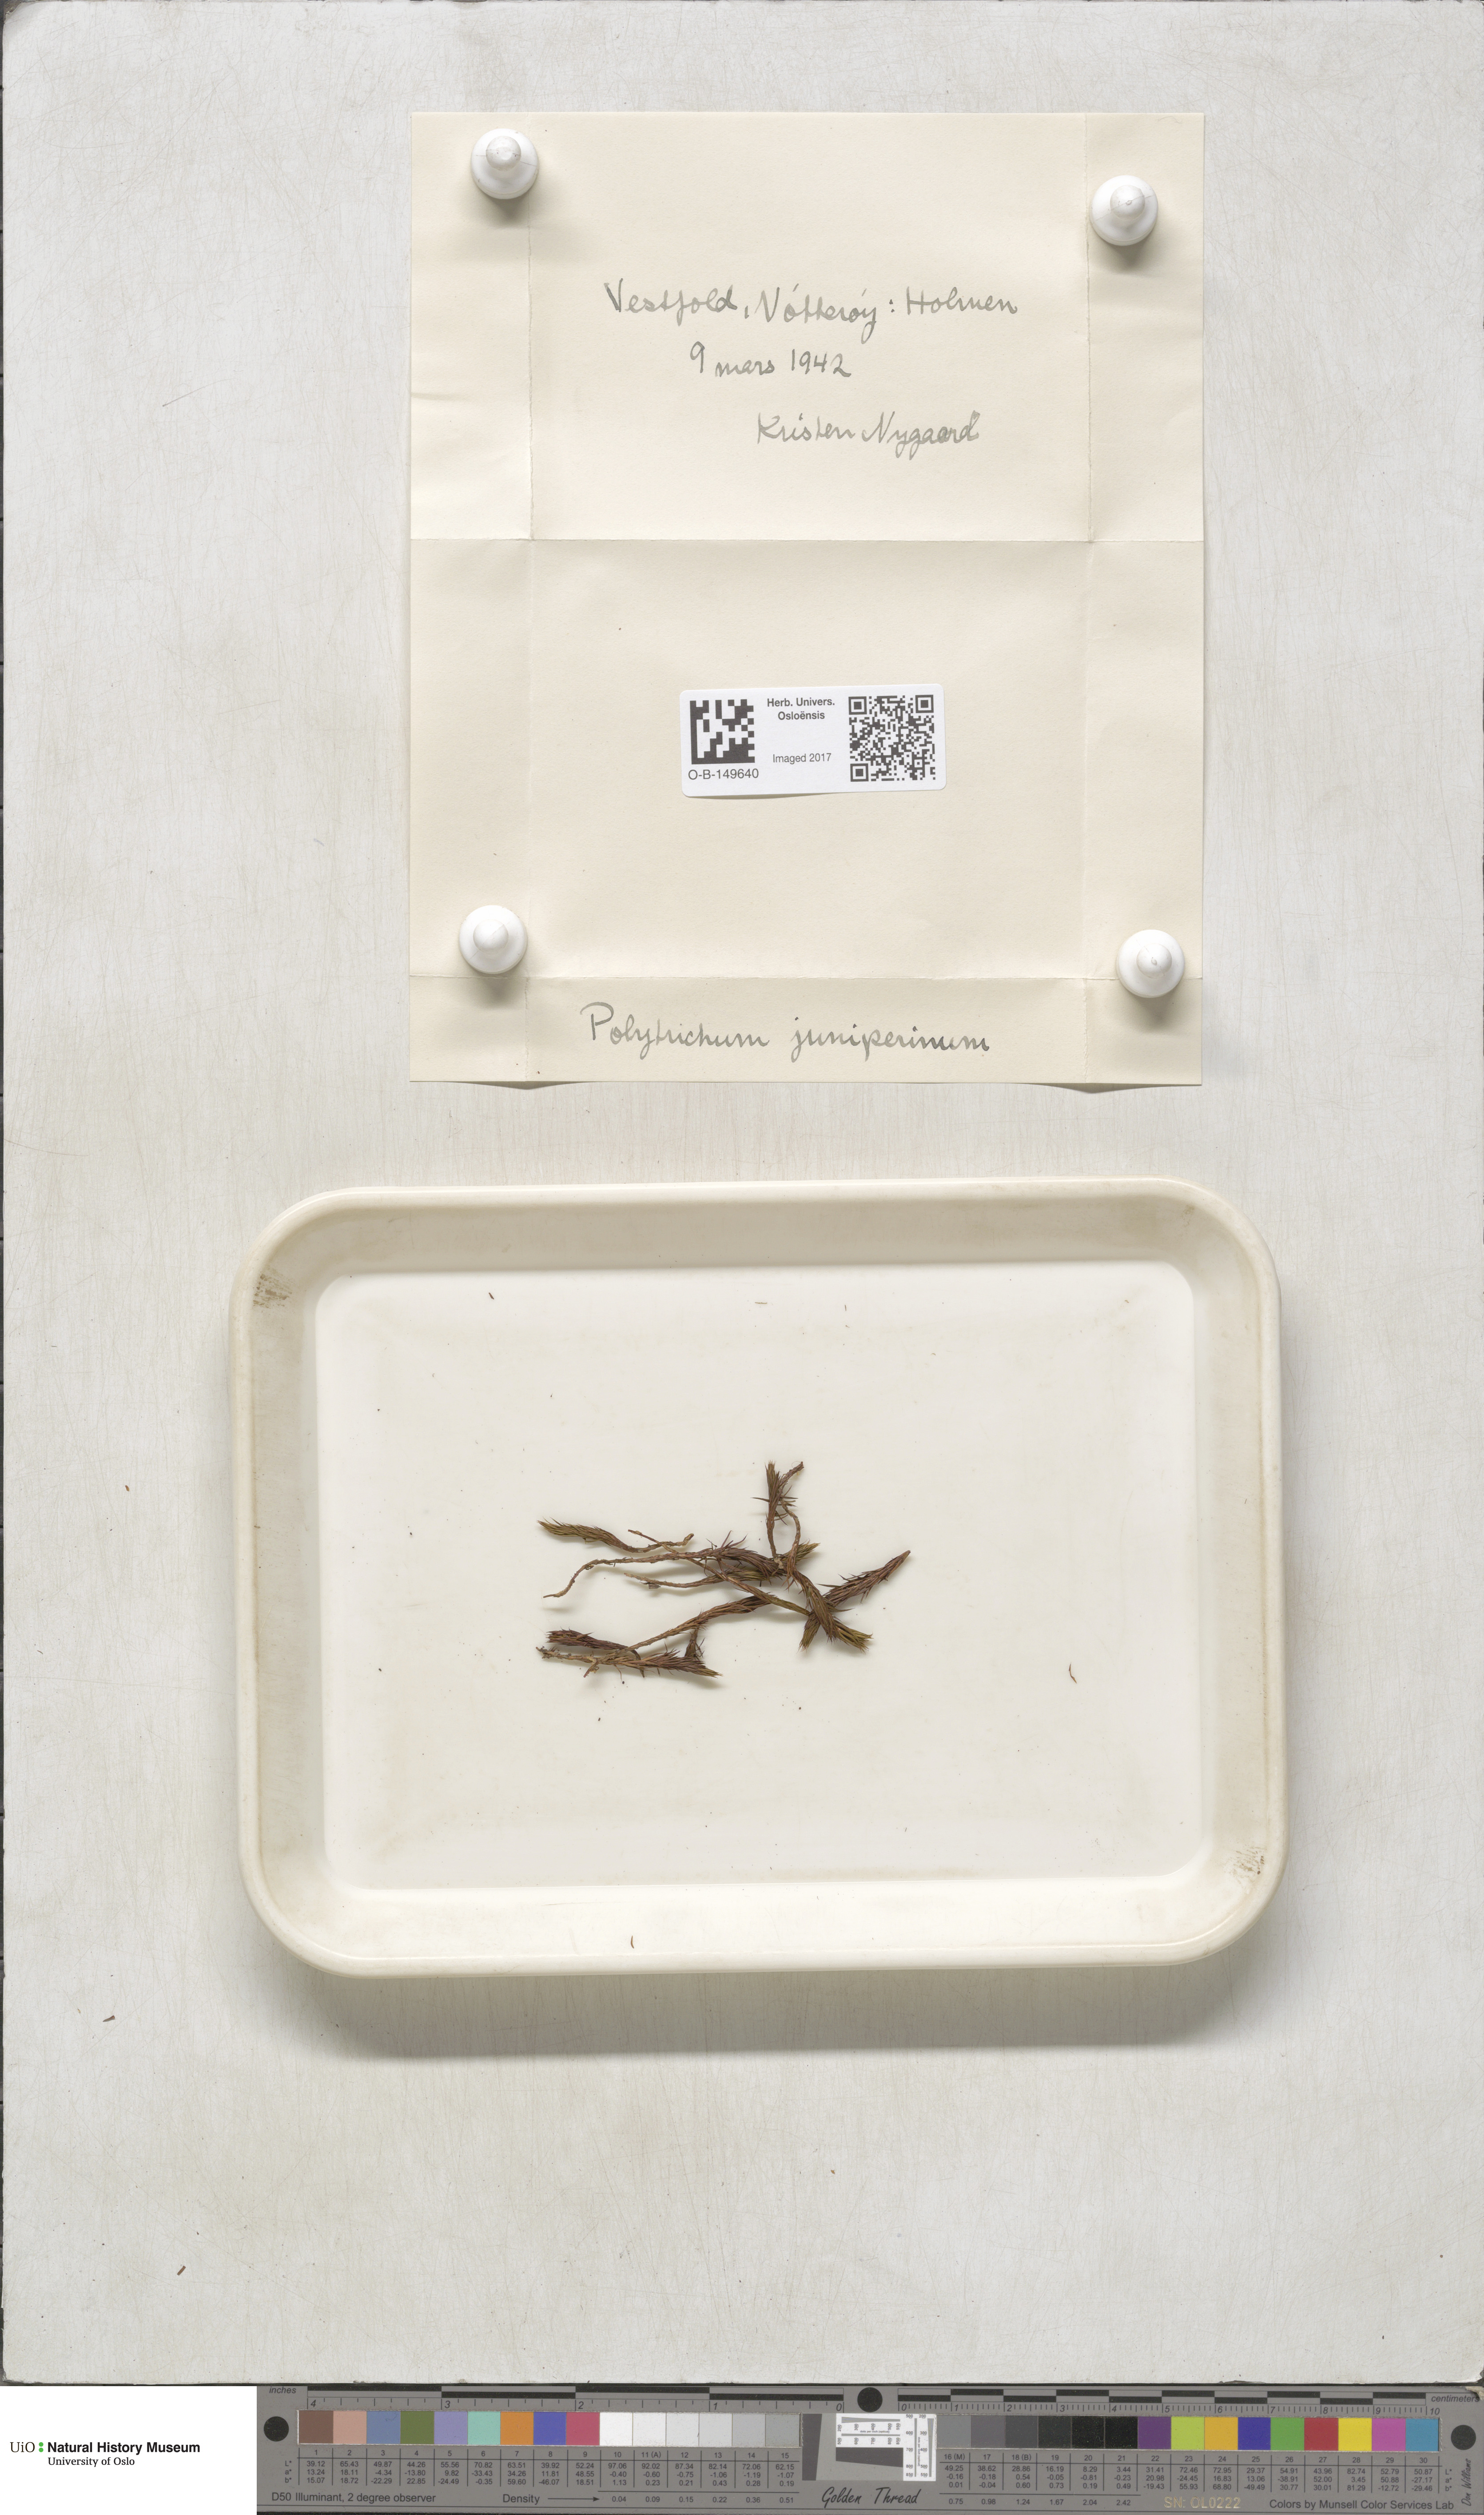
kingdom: Plantae
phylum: Bryophyta
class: Polytrichopsida
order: Polytrichales
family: Polytrichaceae
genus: Polytrichum
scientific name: Polytrichum juniperinum
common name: Juniper haircap moss
